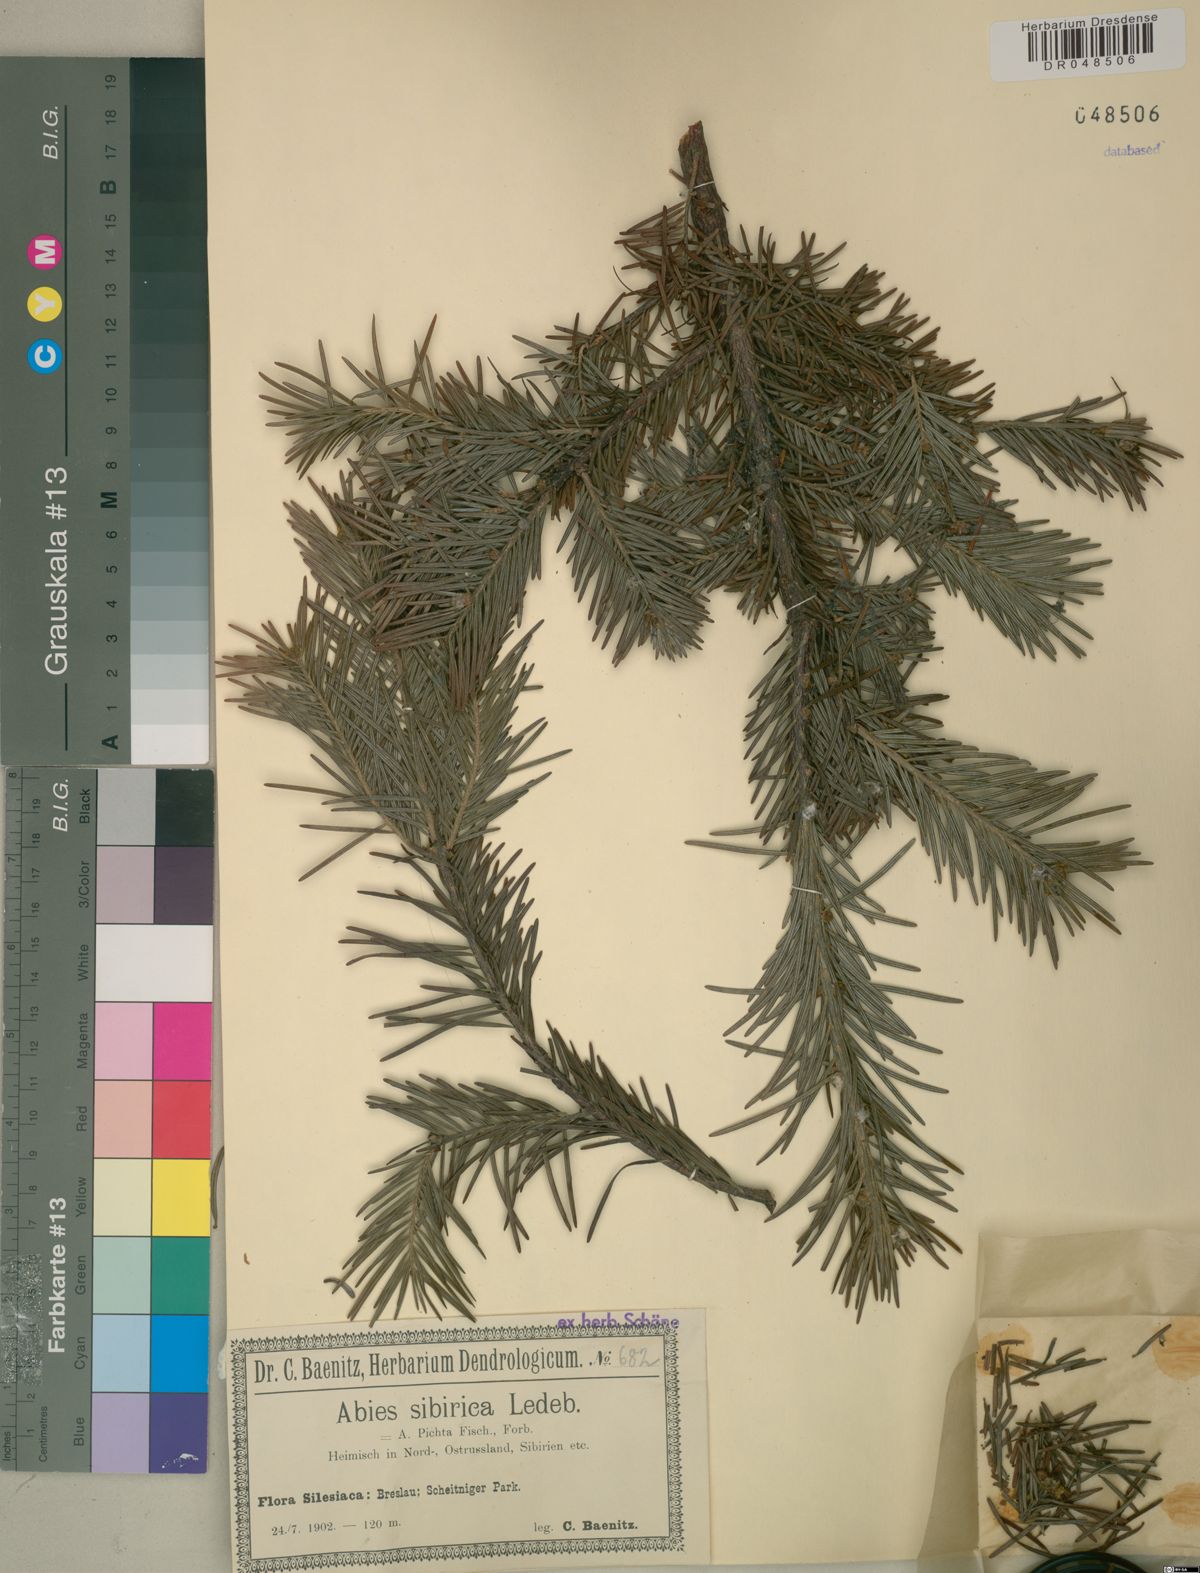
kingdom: Plantae
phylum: Tracheophyta
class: Pinopsida
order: Pinales
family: Pinaceae
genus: Abies
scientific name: Abies sibirica
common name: Siberian fir
